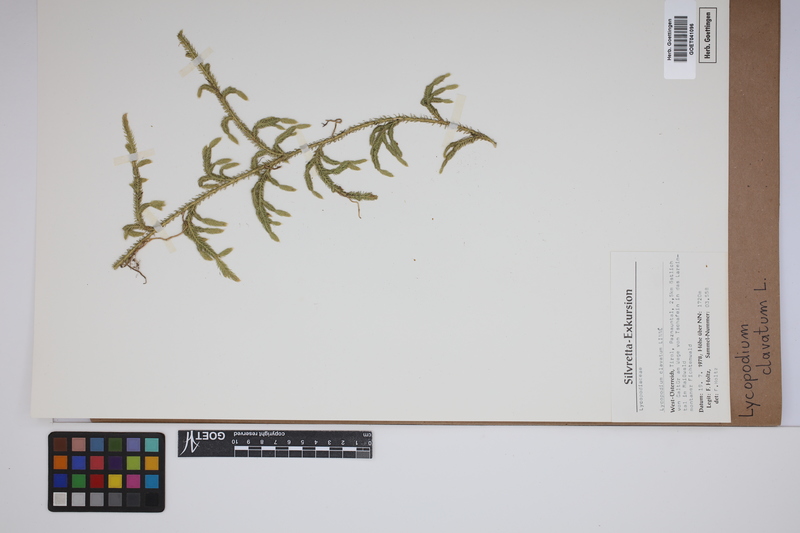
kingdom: Plantae
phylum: Tracheophyta
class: Lycopodiopsida
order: Lycopodiales
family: Lycopodiaceae
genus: Lycopodium
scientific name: Lycopodium clavatum
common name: Stag's-horn clubmoss
